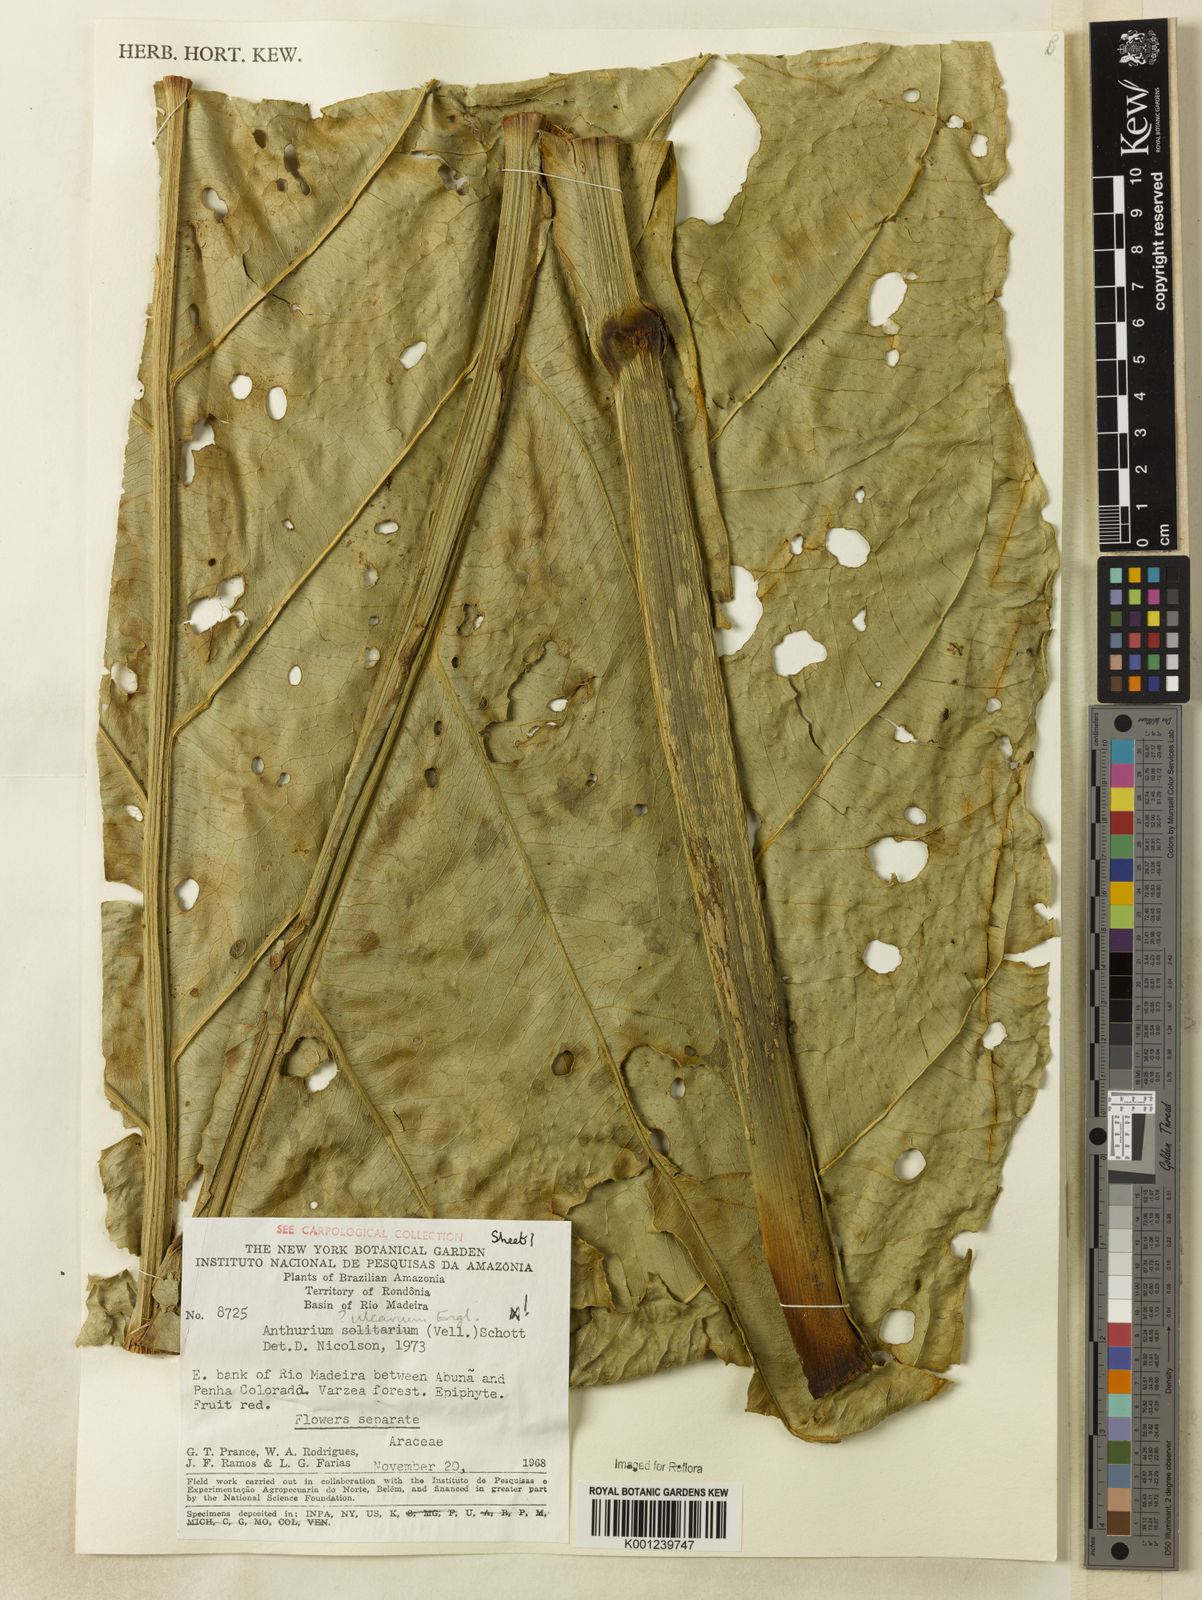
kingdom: Plantae
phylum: Tracheophyta
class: Liliopsida
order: Alismatales
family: Araceae
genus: Anthurium
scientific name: Anthurium uleanum
